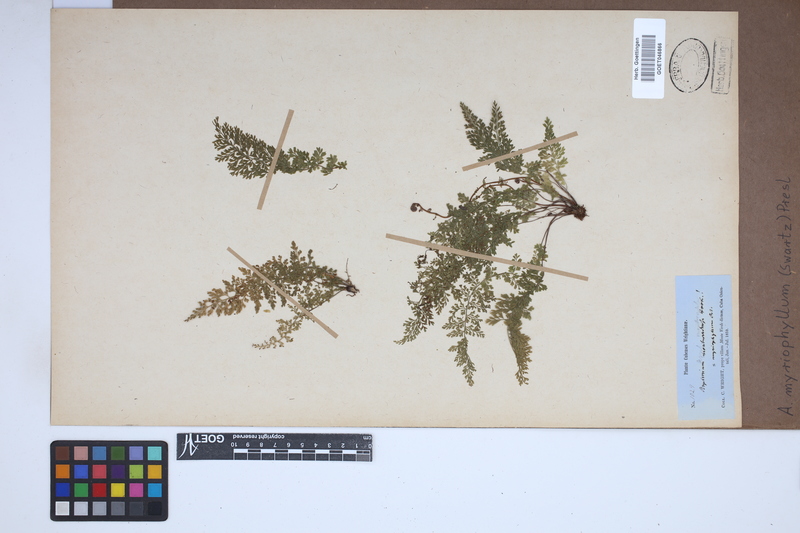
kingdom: Plantae
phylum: Tracheophyta
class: Polypodiopsida
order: Polypodiales
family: Aspleniaceae
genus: Asplenium
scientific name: Asplenium myriophyllum
